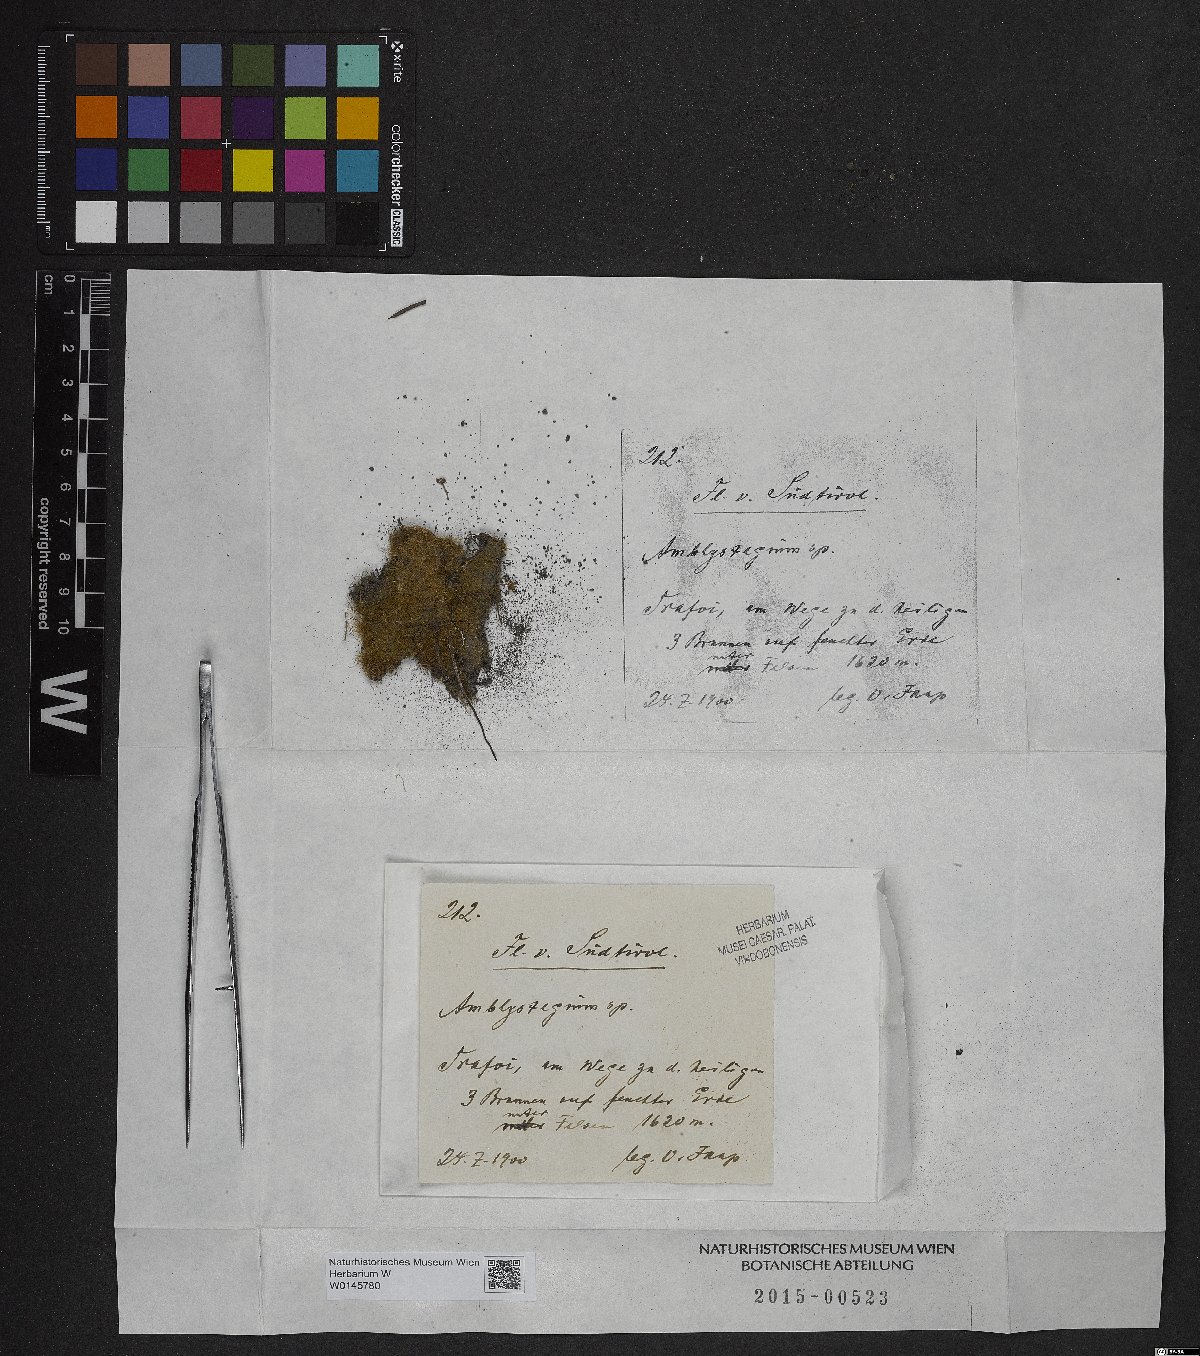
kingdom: Plantae
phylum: Bryophyta
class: Bryopsida
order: Hypnales
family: Amblystegiaceae
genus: Amblystegium
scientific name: Amblystegium
